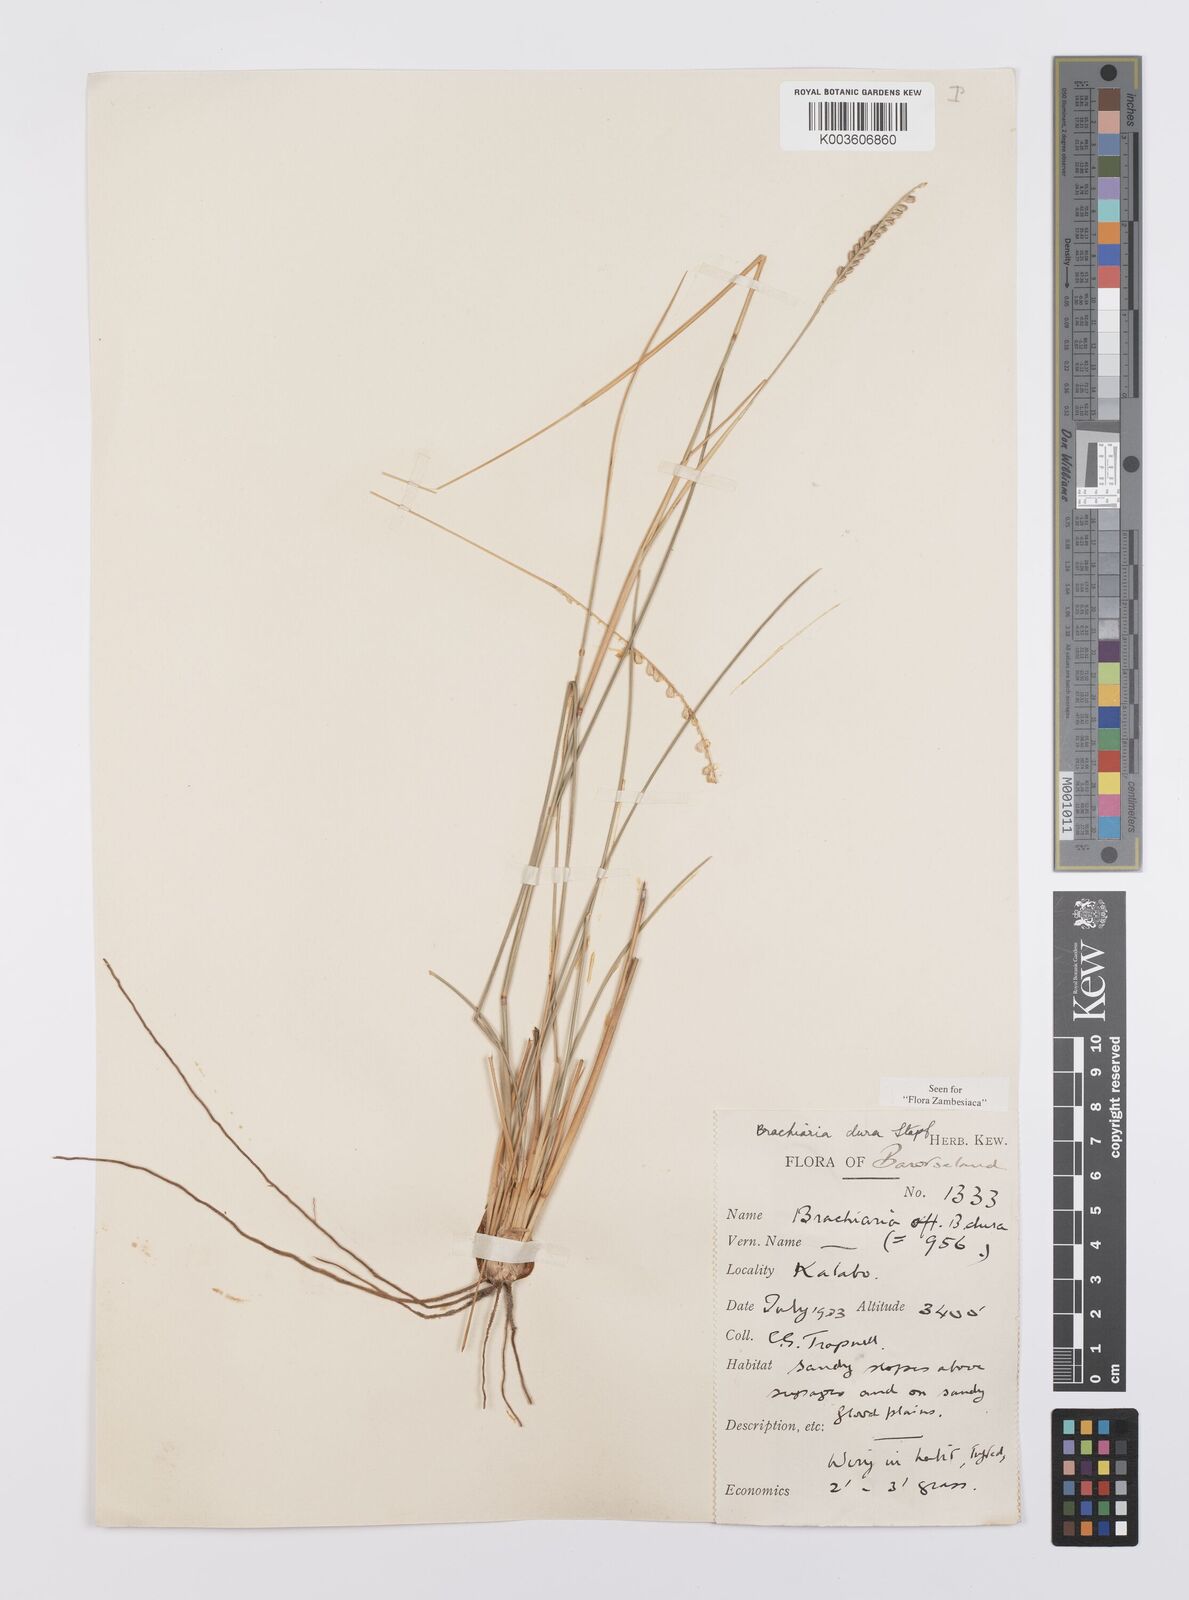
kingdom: Plantae
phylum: Tracheophyta
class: Liliopsida
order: Poales
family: Poaceae
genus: Urochloa
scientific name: Urochloa dura
